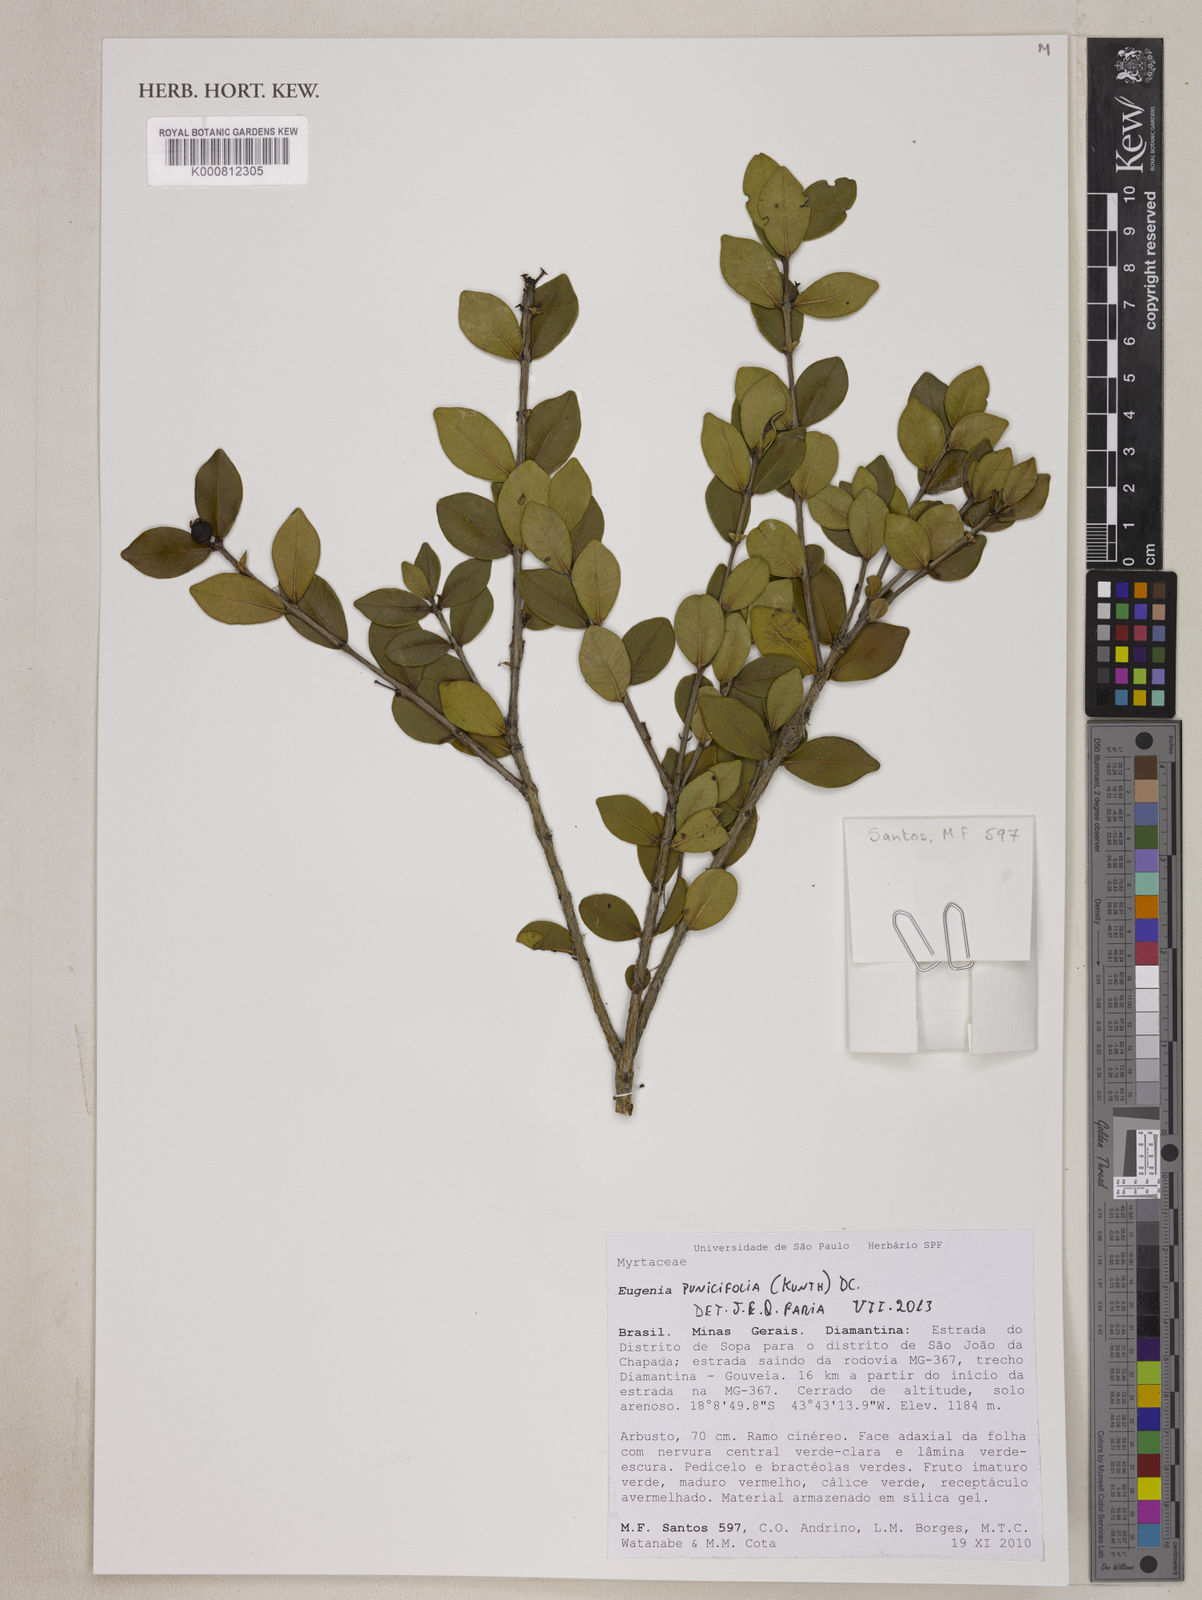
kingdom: Plantae
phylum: Tracheophyta
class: Magnoliopsida
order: Myrtales
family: Myrtaceae
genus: Eugenia
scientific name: Eugenia punicifolia
